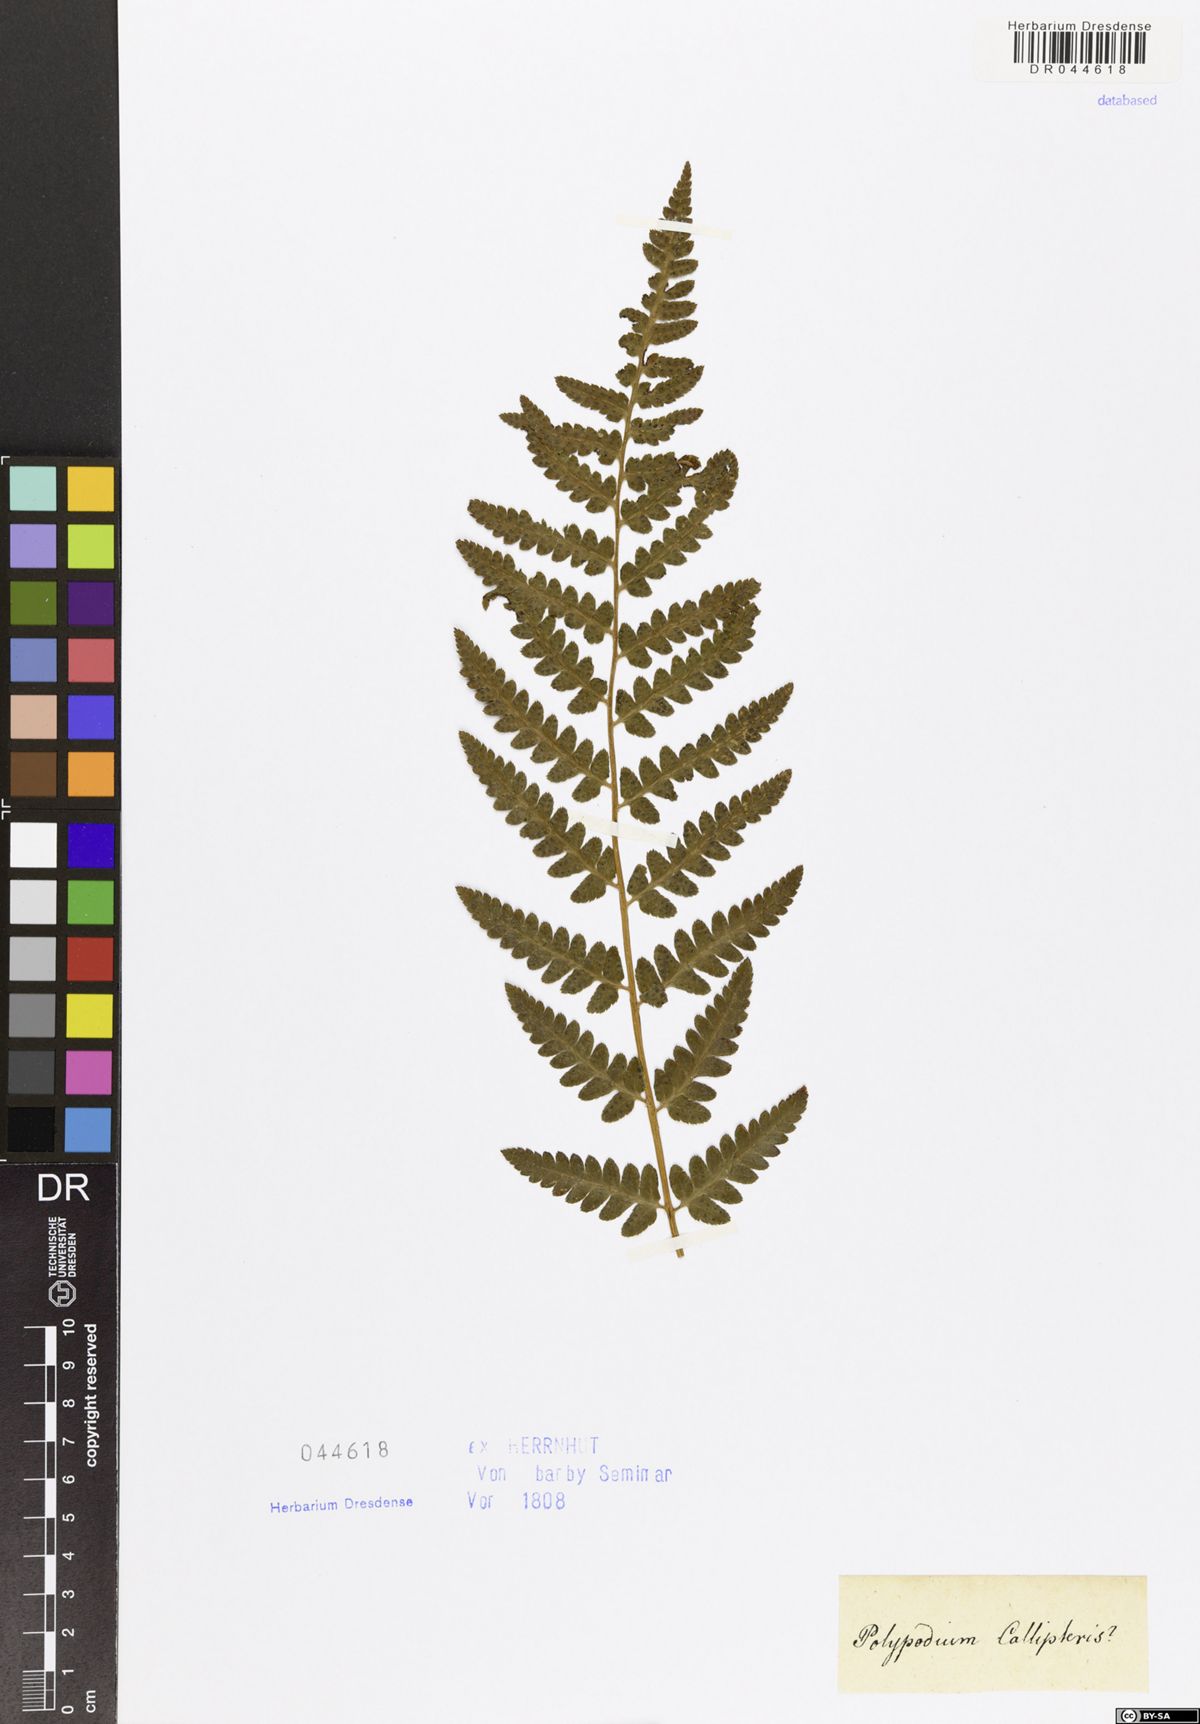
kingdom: Plantae
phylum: Tracheophyta
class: Polypodiopsida
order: Polypodiales
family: Dryopteridaceae
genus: Dryopteris
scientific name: Dryopteris cristata
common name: Crested wood fern
